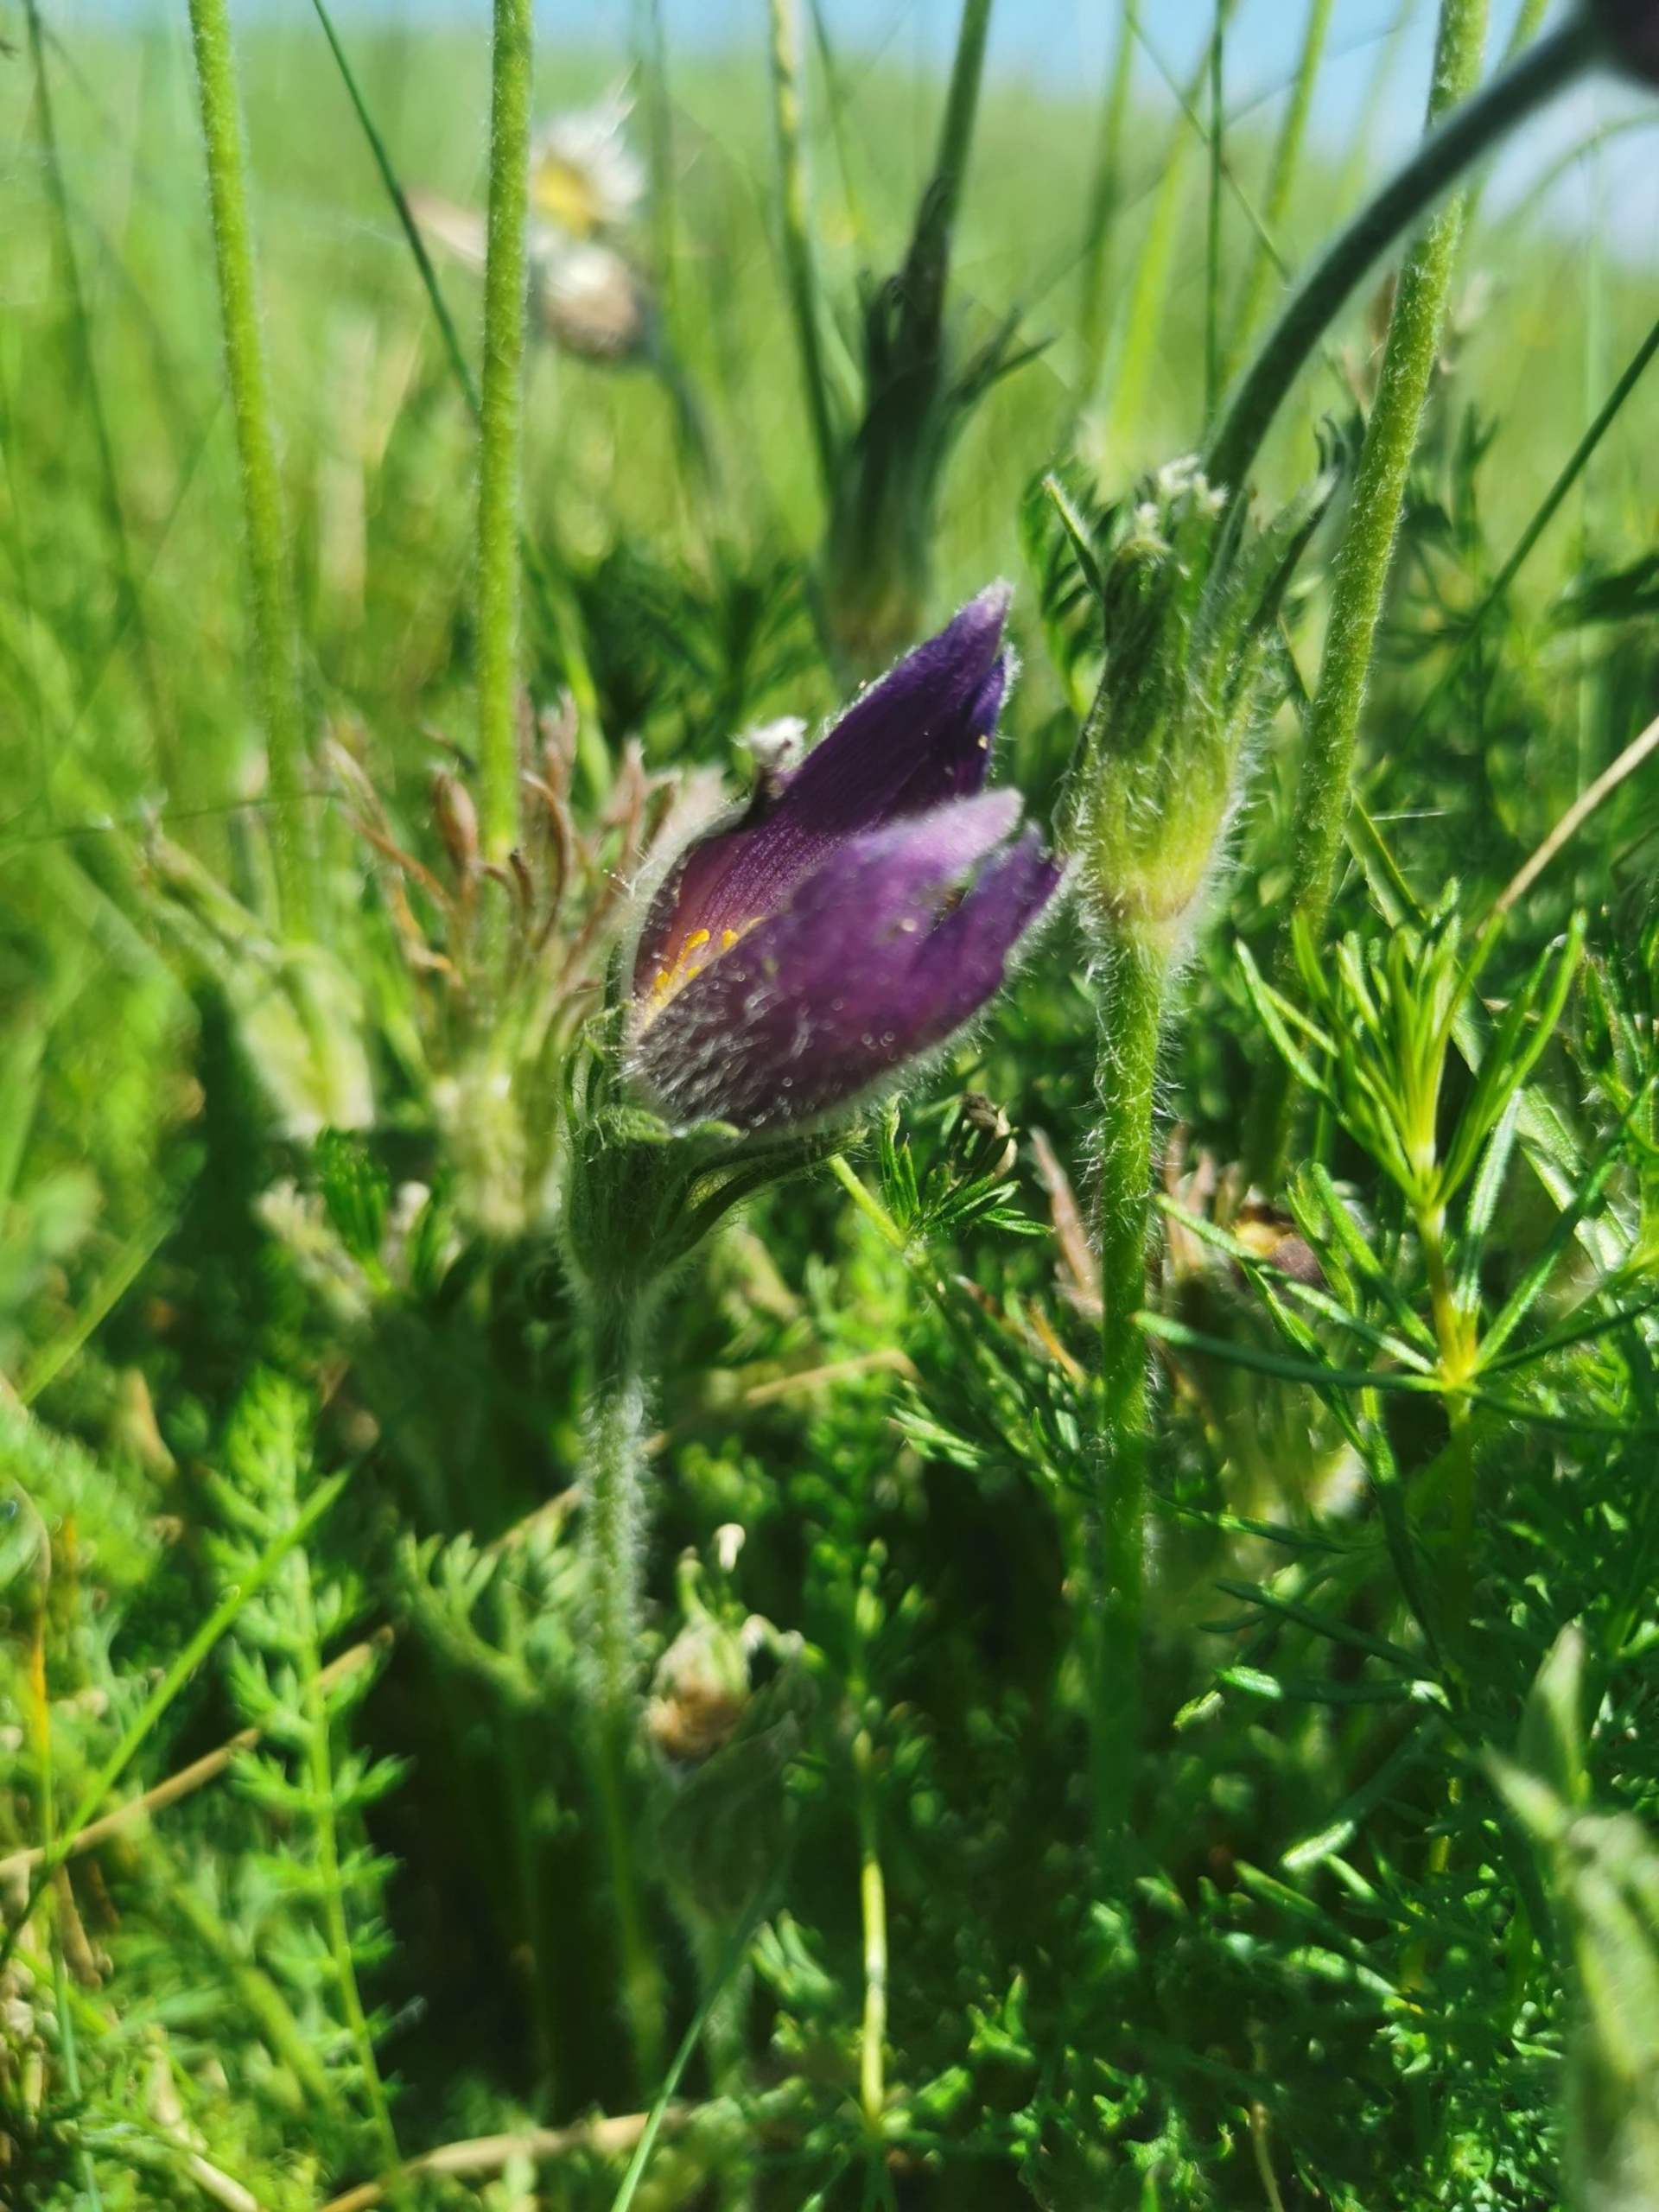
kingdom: Plantae
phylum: Tracheophyta
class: Magnoliopsida
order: Ranunculales
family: Ranunculaceae
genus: Pulsatilla
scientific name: Pulsatilla vulgaris
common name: Opret kobjælde
